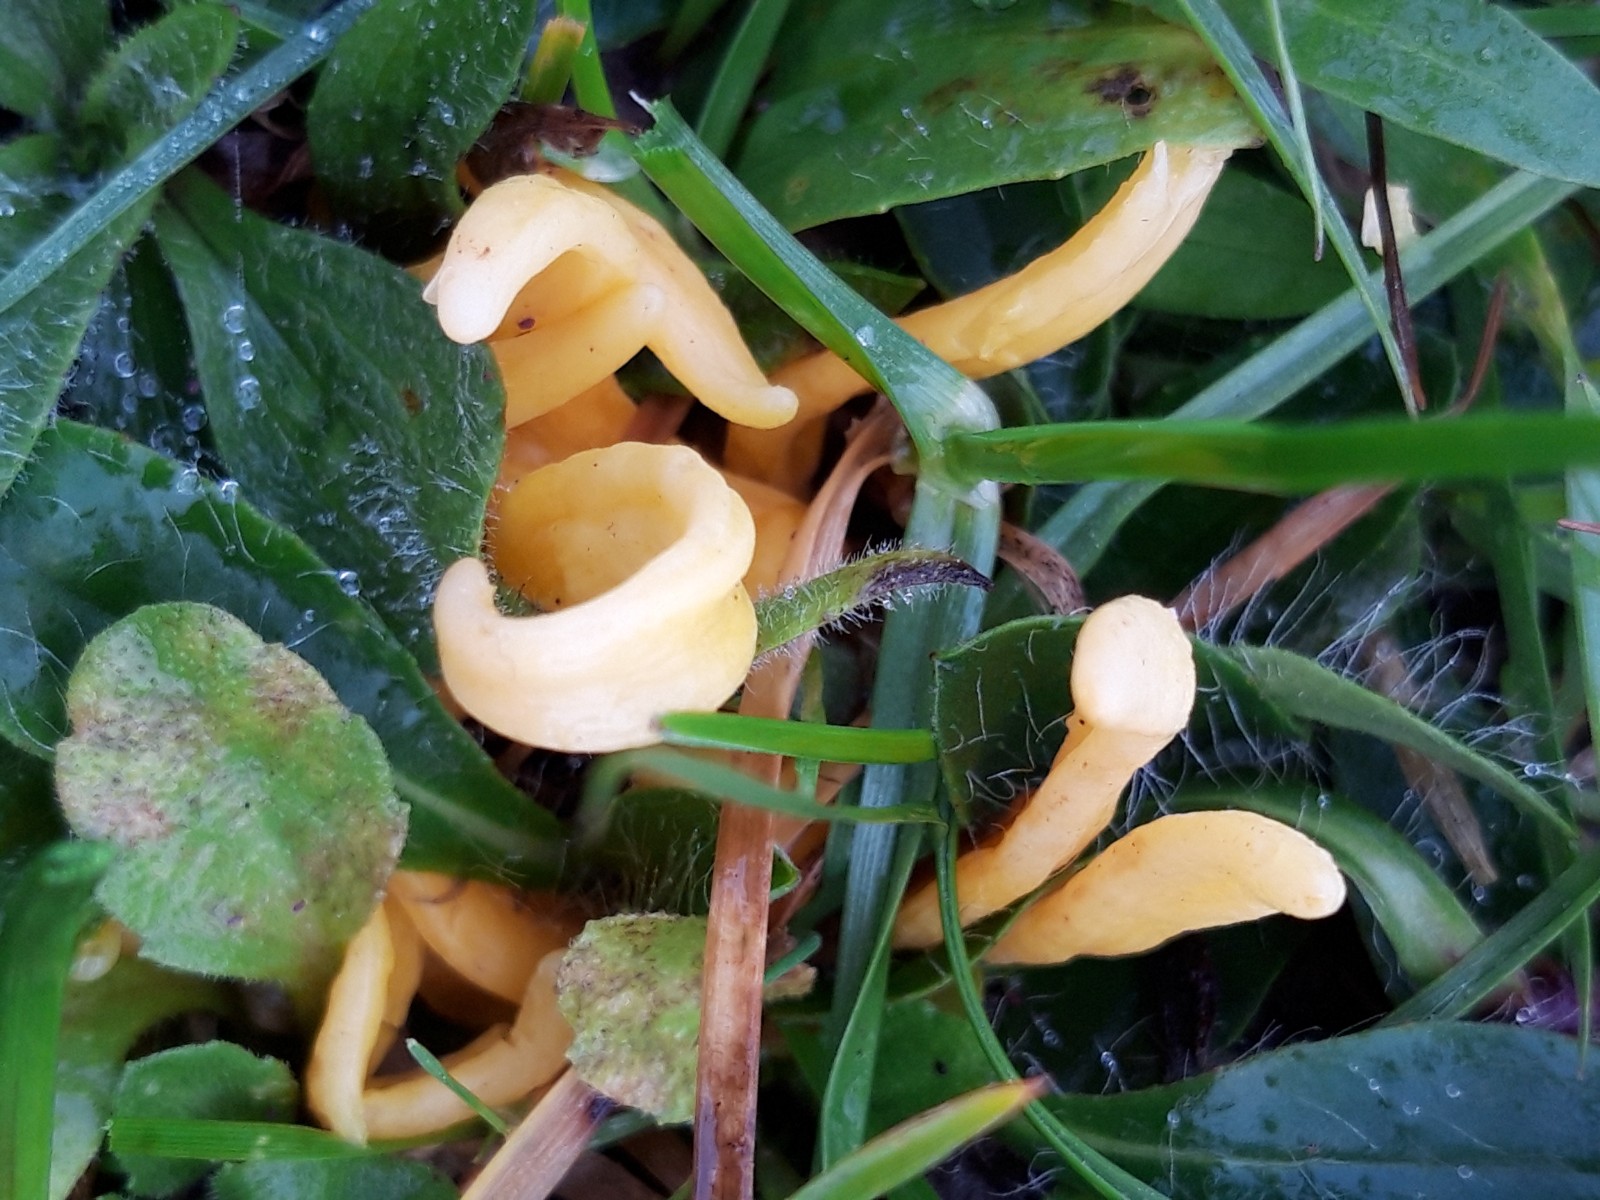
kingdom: Fungi
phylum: Basidiomycota
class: Agaricomycetes
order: Agaricales
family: Clavariaceae
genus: Clavulinopsis
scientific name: Clavulinopsis
